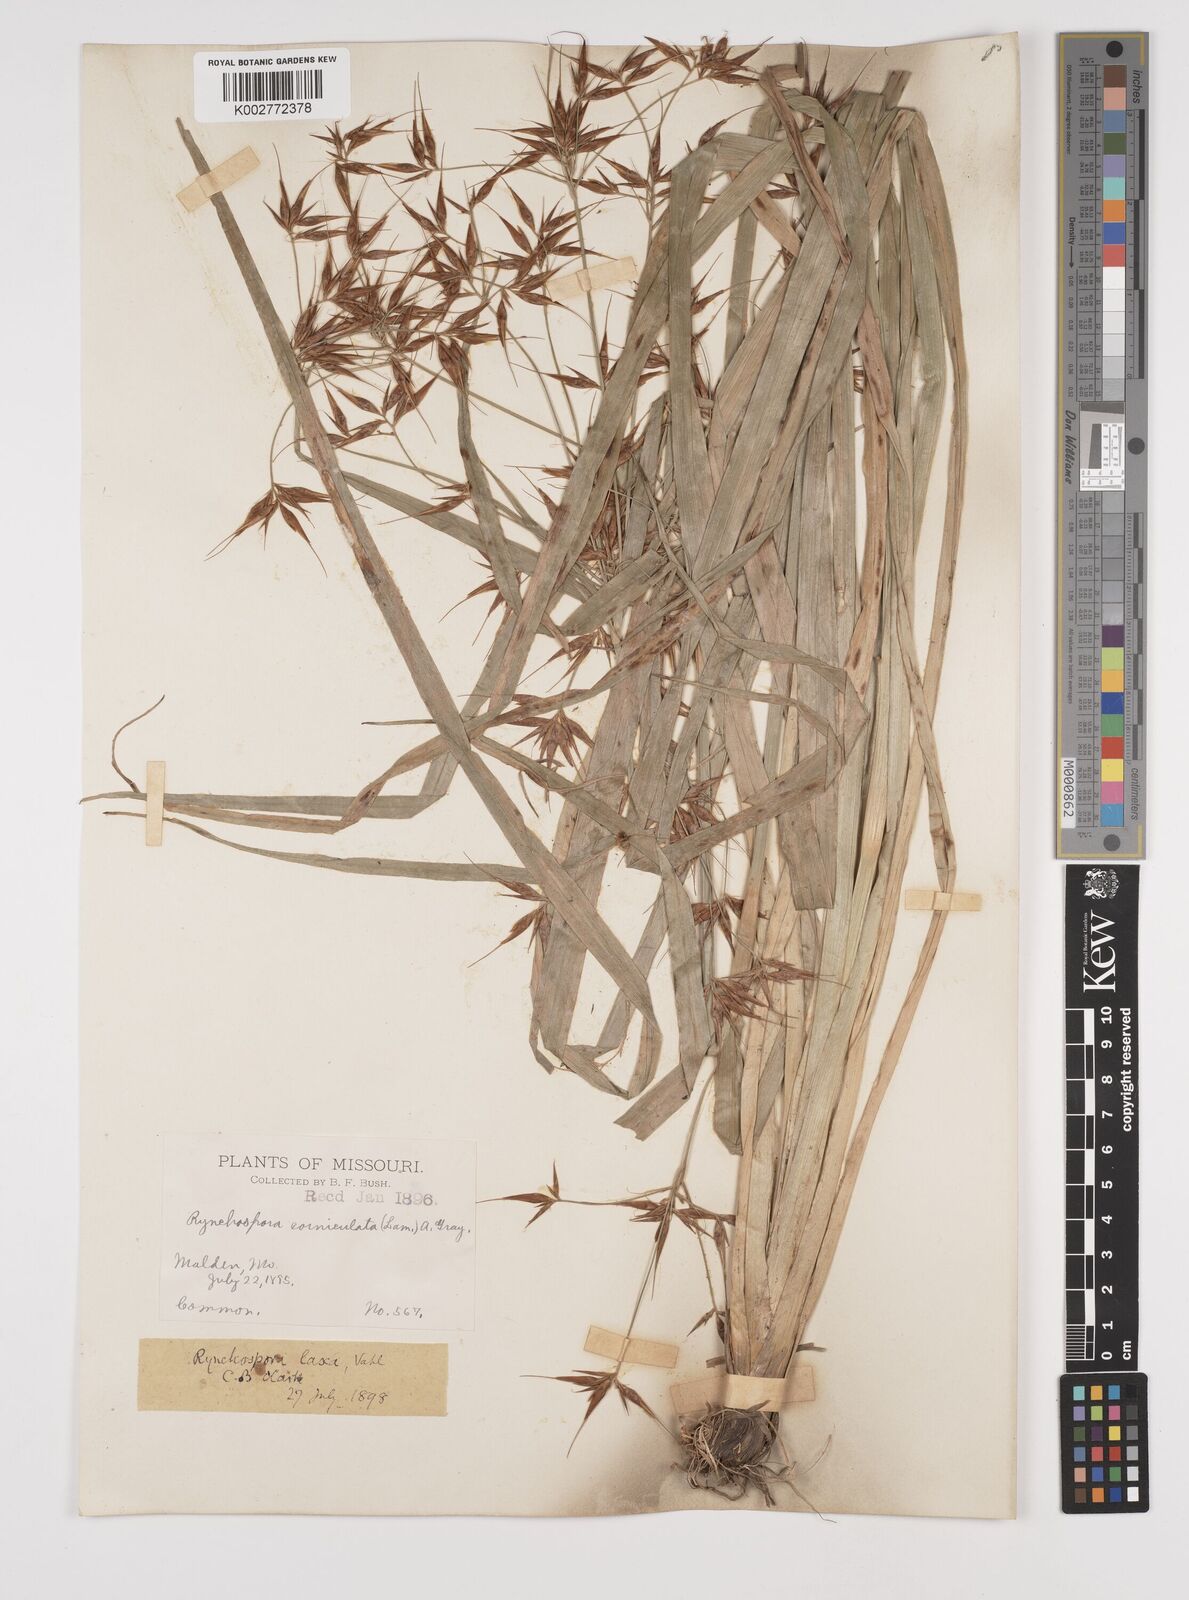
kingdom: Plantae
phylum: Tracheophyta
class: Liliopsida
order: Poales
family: Cyperaceae
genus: Rhynchospora
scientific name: Rhynchospora corniculata
